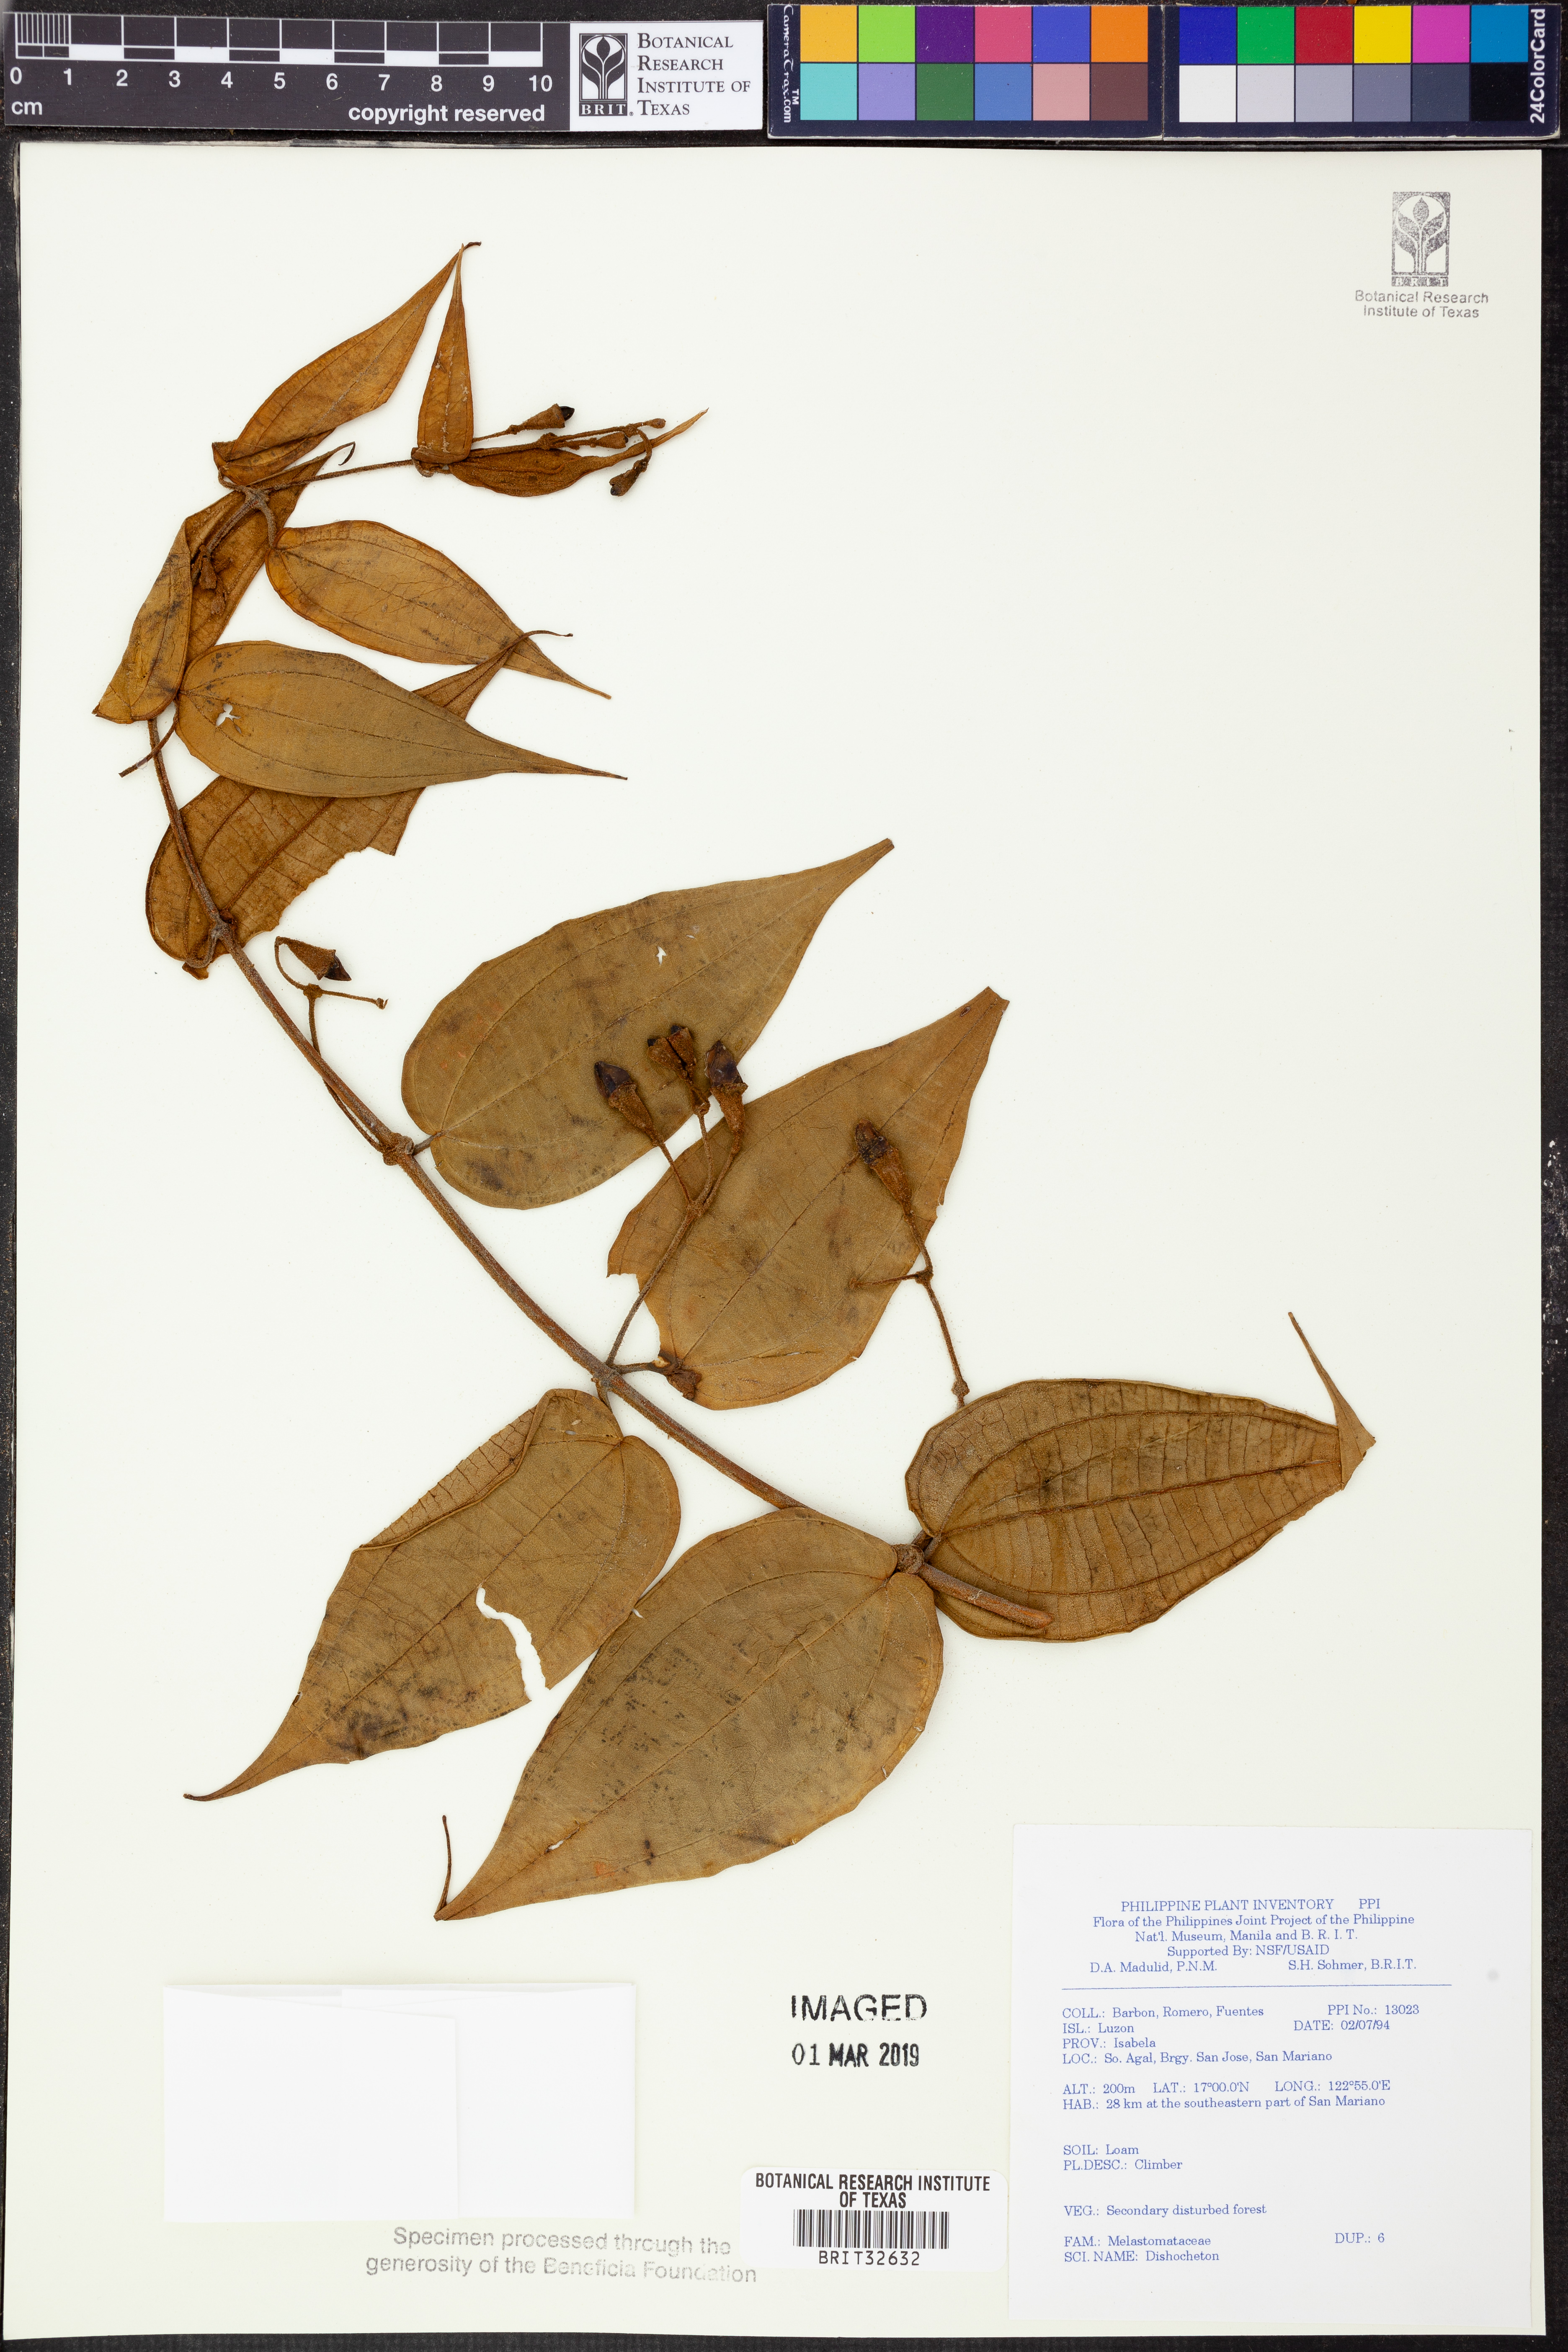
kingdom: Plantae
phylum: Tracheophyta
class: Magnoliopsida
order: Myrtales
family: Melastomataceae
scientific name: Melastomataceae
